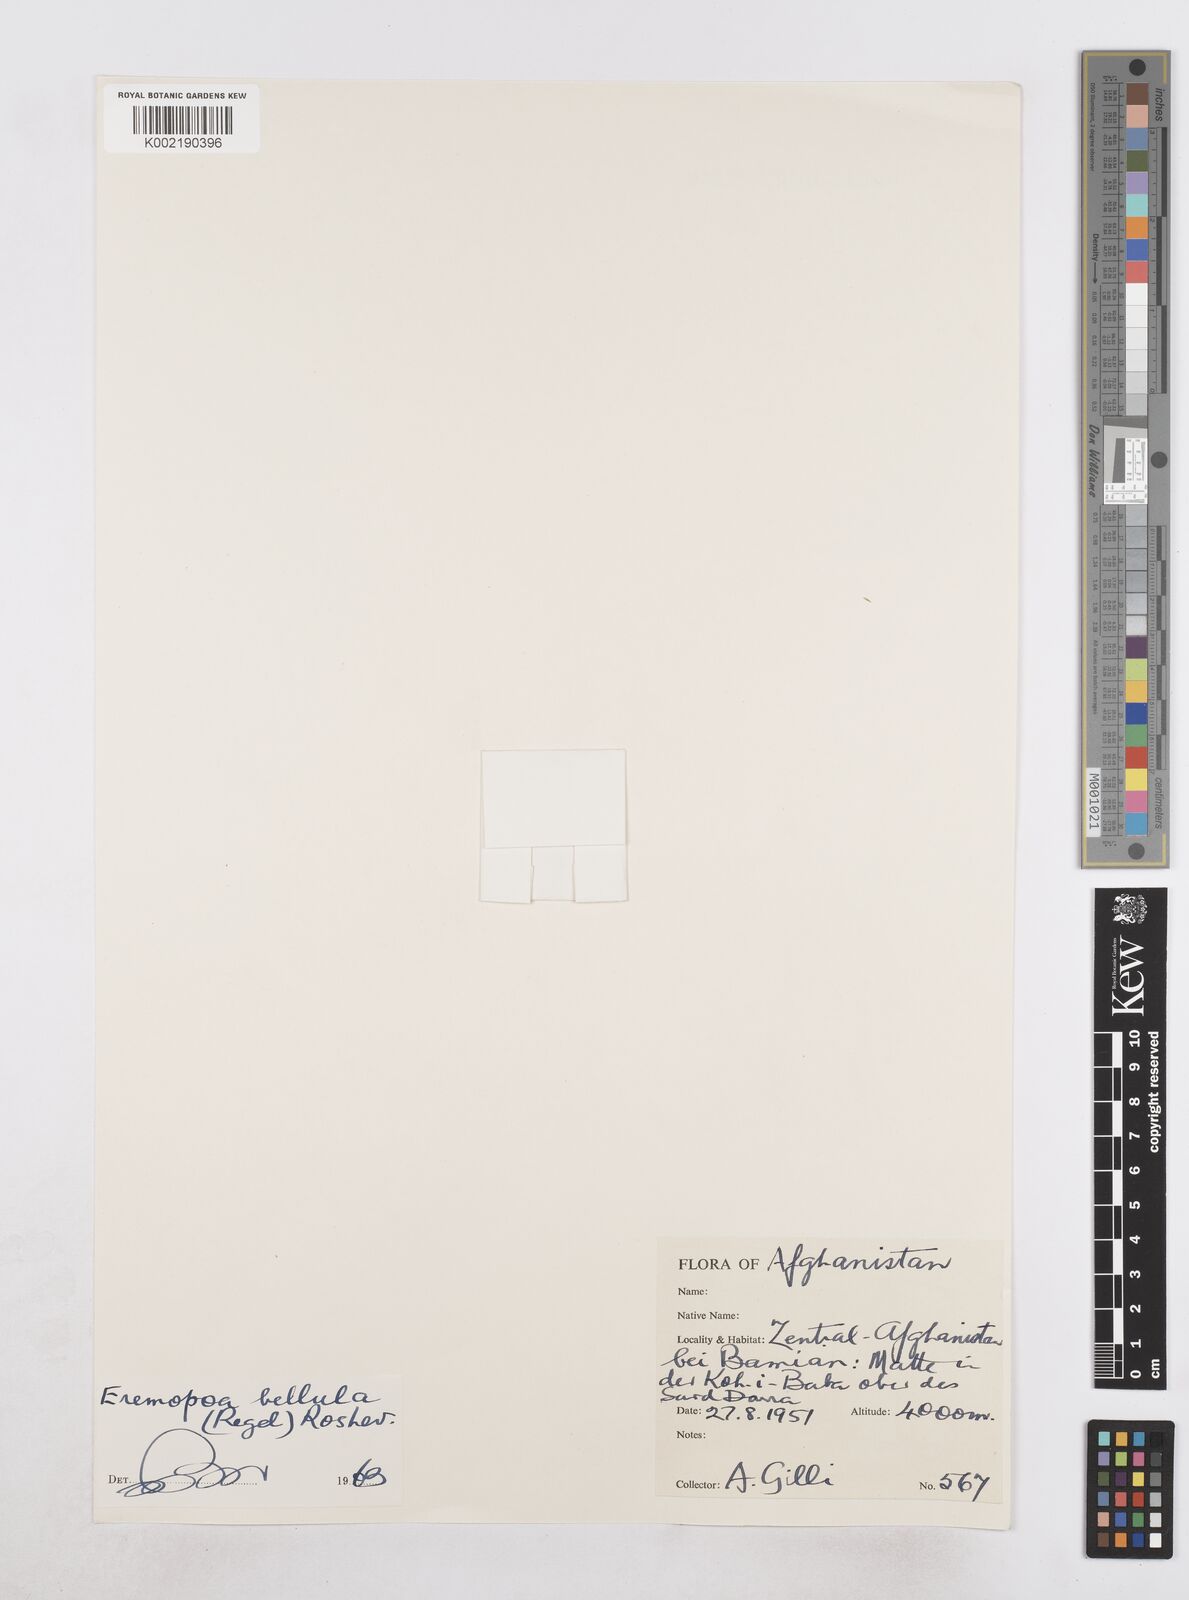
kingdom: Plantae
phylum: Tracheophyta
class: Liliopsida
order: Poales
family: Poaceae
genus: Poa
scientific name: Poa diaphora
